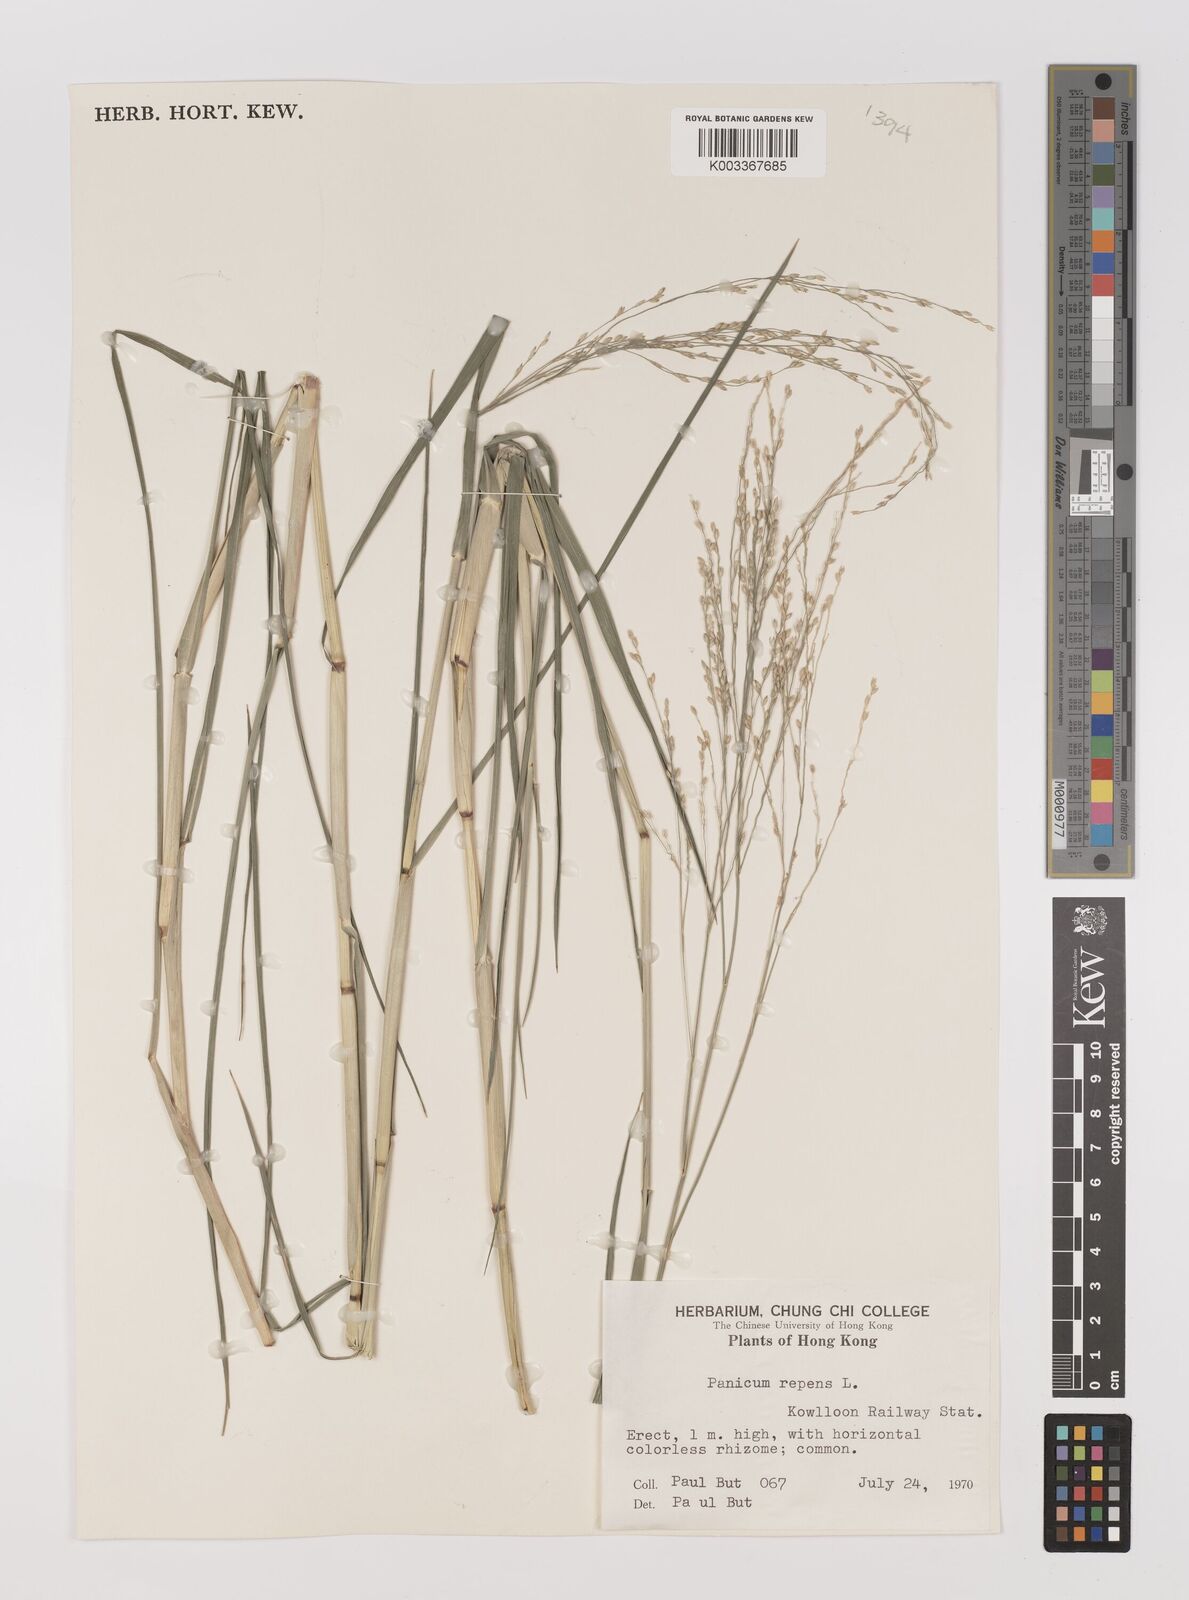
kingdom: Plantae
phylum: Tracheophyta
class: Liliopsida
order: Poales
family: Poaceae
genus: Panicum
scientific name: Panicum repens
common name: Torpedo grass
